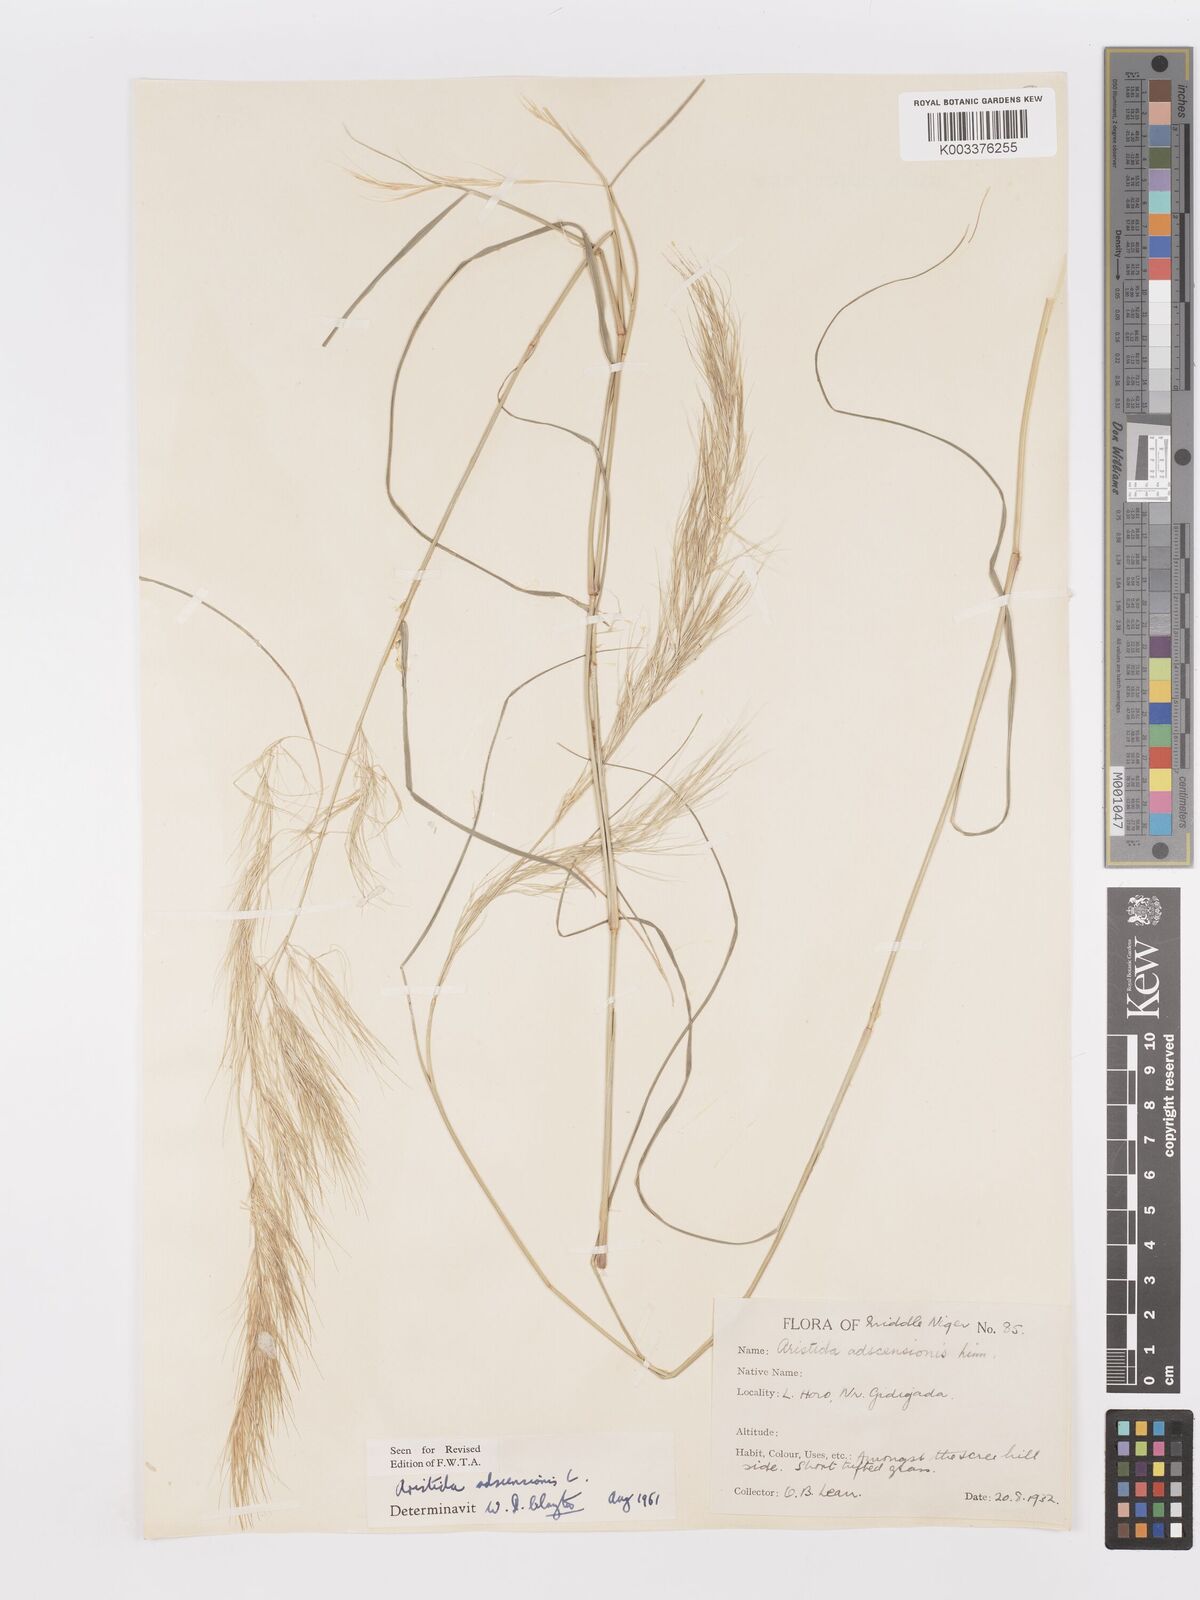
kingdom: Plantae
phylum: Tracheophyta
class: Liliopsida
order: Poales
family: Poaceae
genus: Aristida
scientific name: Aristida adscensionis
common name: Sixweeks threeawn
